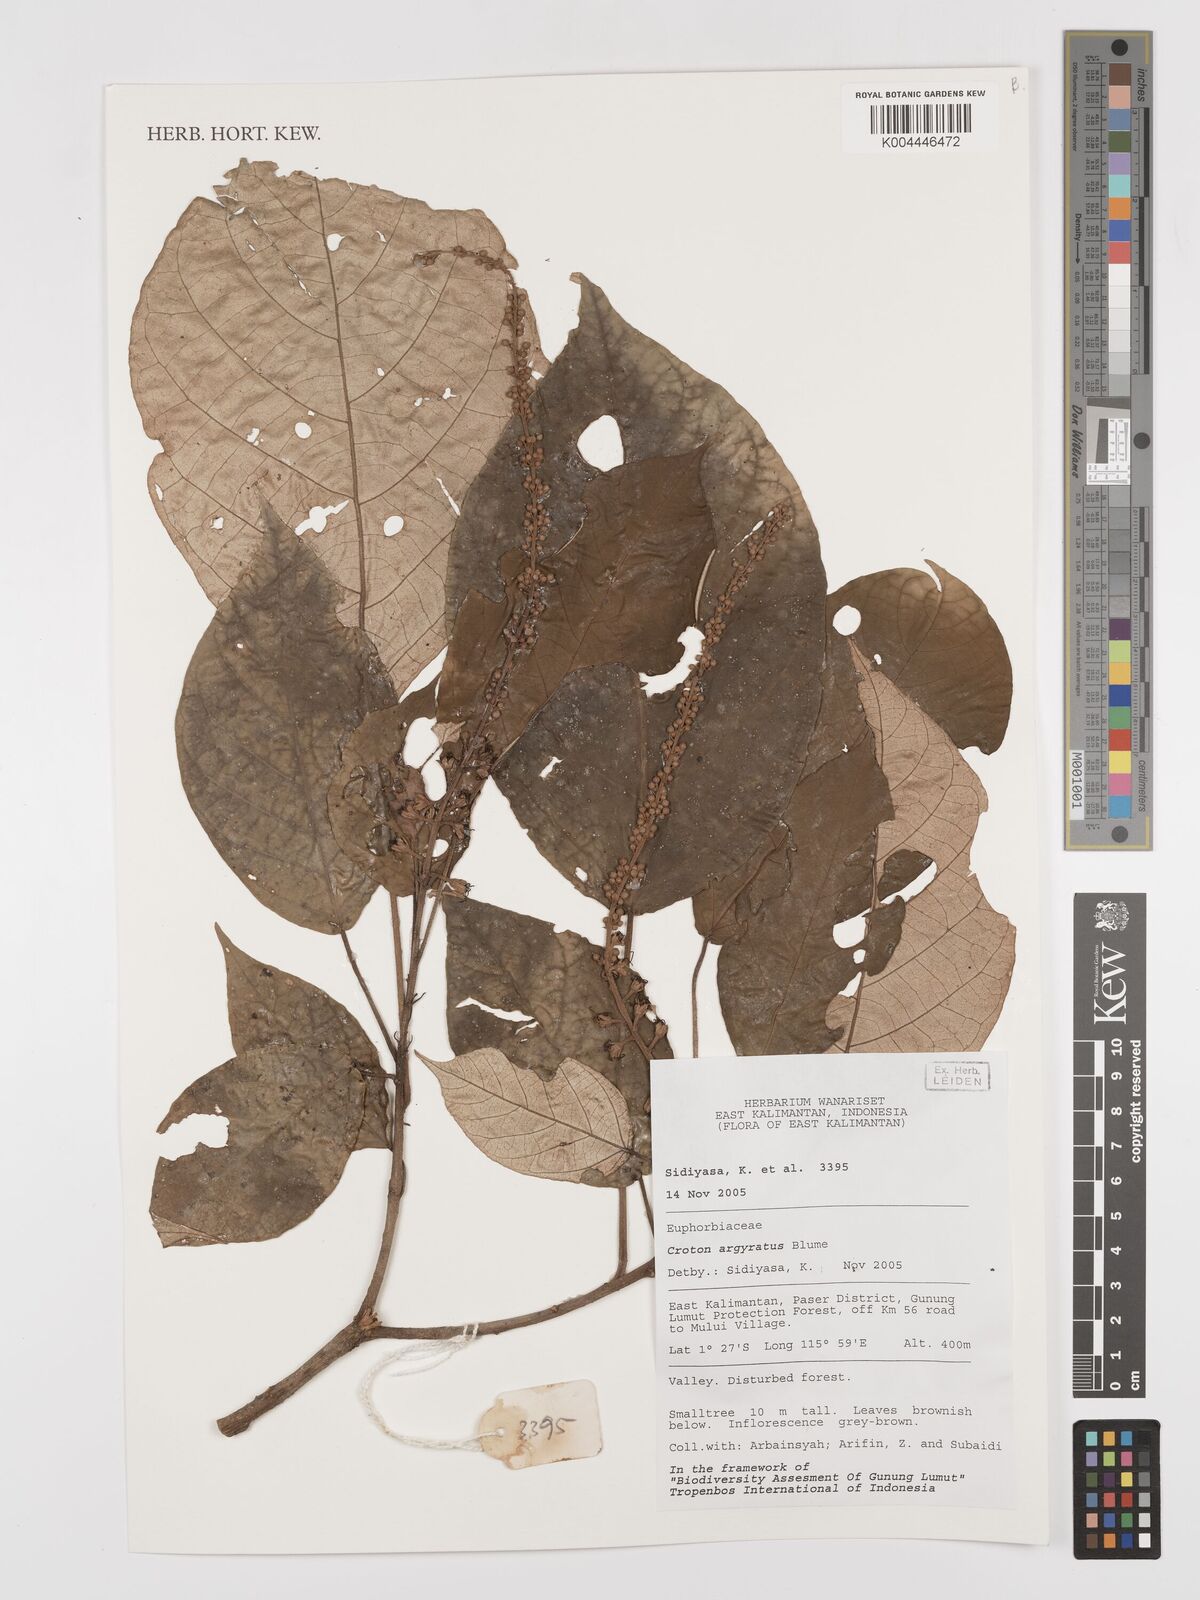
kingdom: Plantae
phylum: Tracheophyta
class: Magnoliopsida
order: Malpighiales
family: Euphorbiaceae
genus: Croton
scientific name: Croton argyratus
